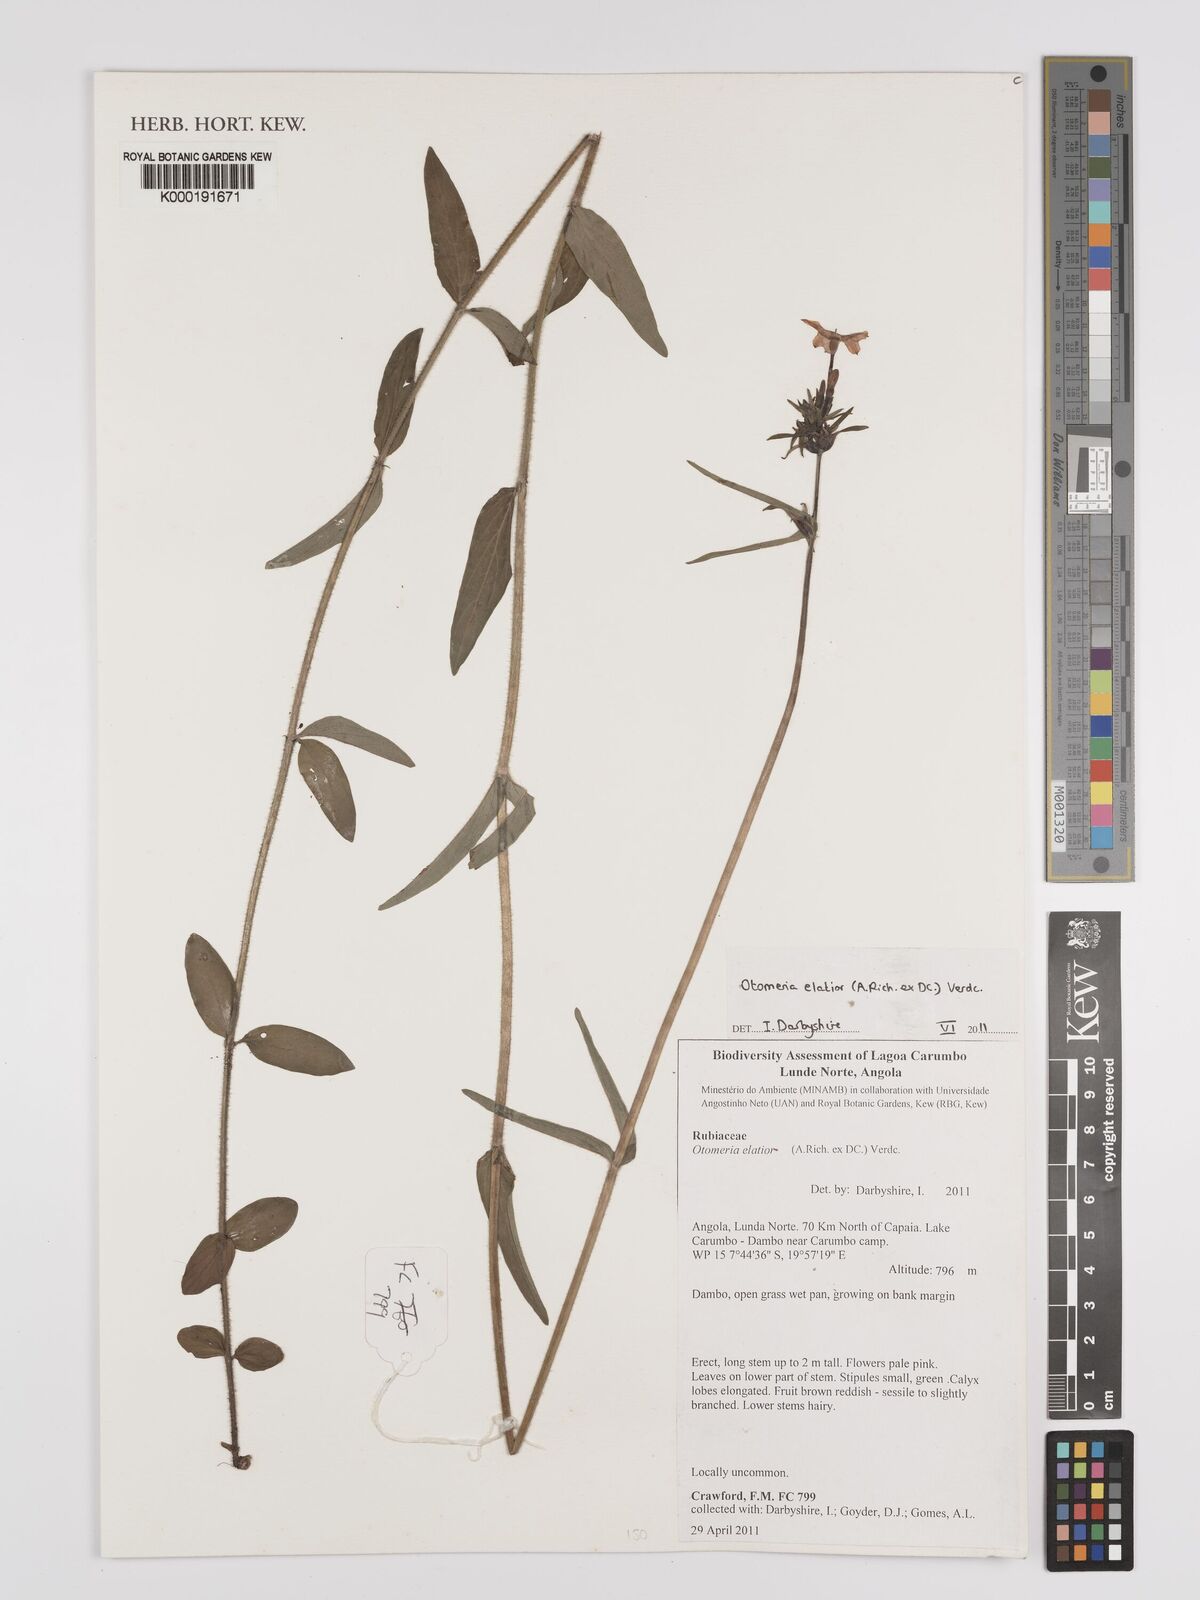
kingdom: Plantae
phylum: Tracheophyta
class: Magnoliopsida
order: Gentianales
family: Rubiaceae
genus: Otomeria
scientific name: Otomeria elatior
